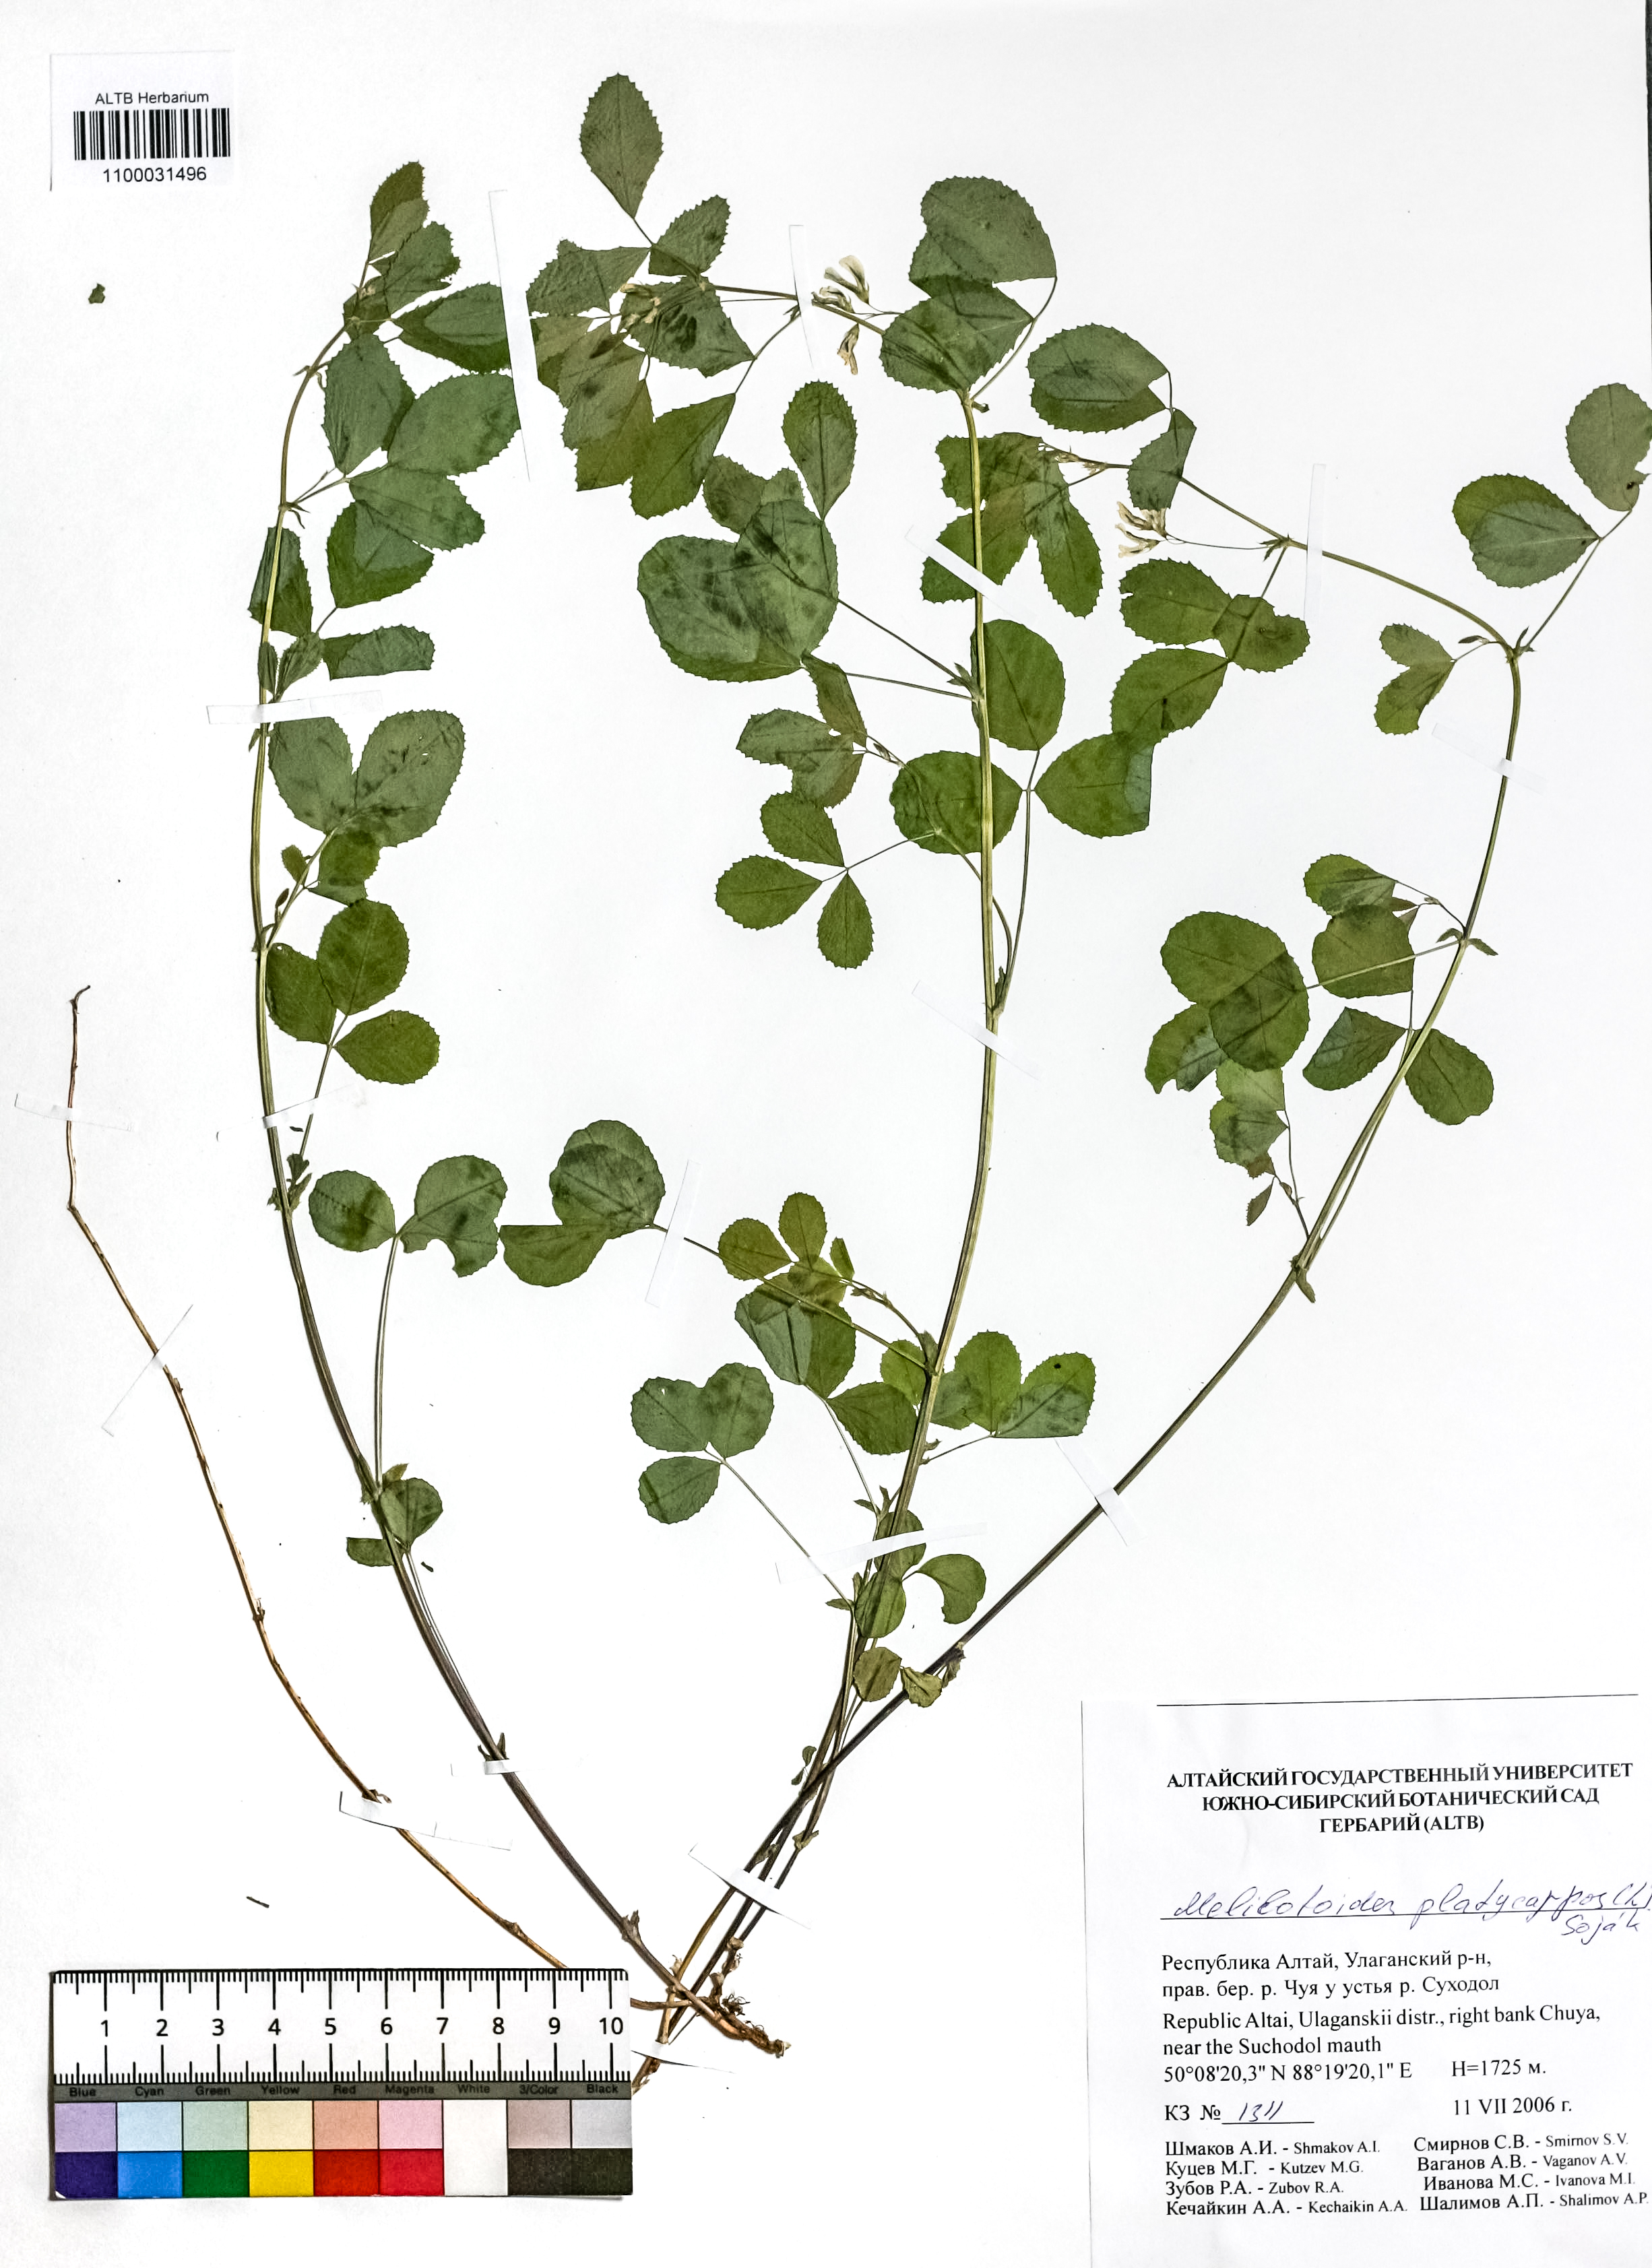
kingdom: Plantae
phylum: Tracheophyta
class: Magnoliopsida
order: Fabales
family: Fabaceae
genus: Medicago
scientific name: Medicago platycarpos
